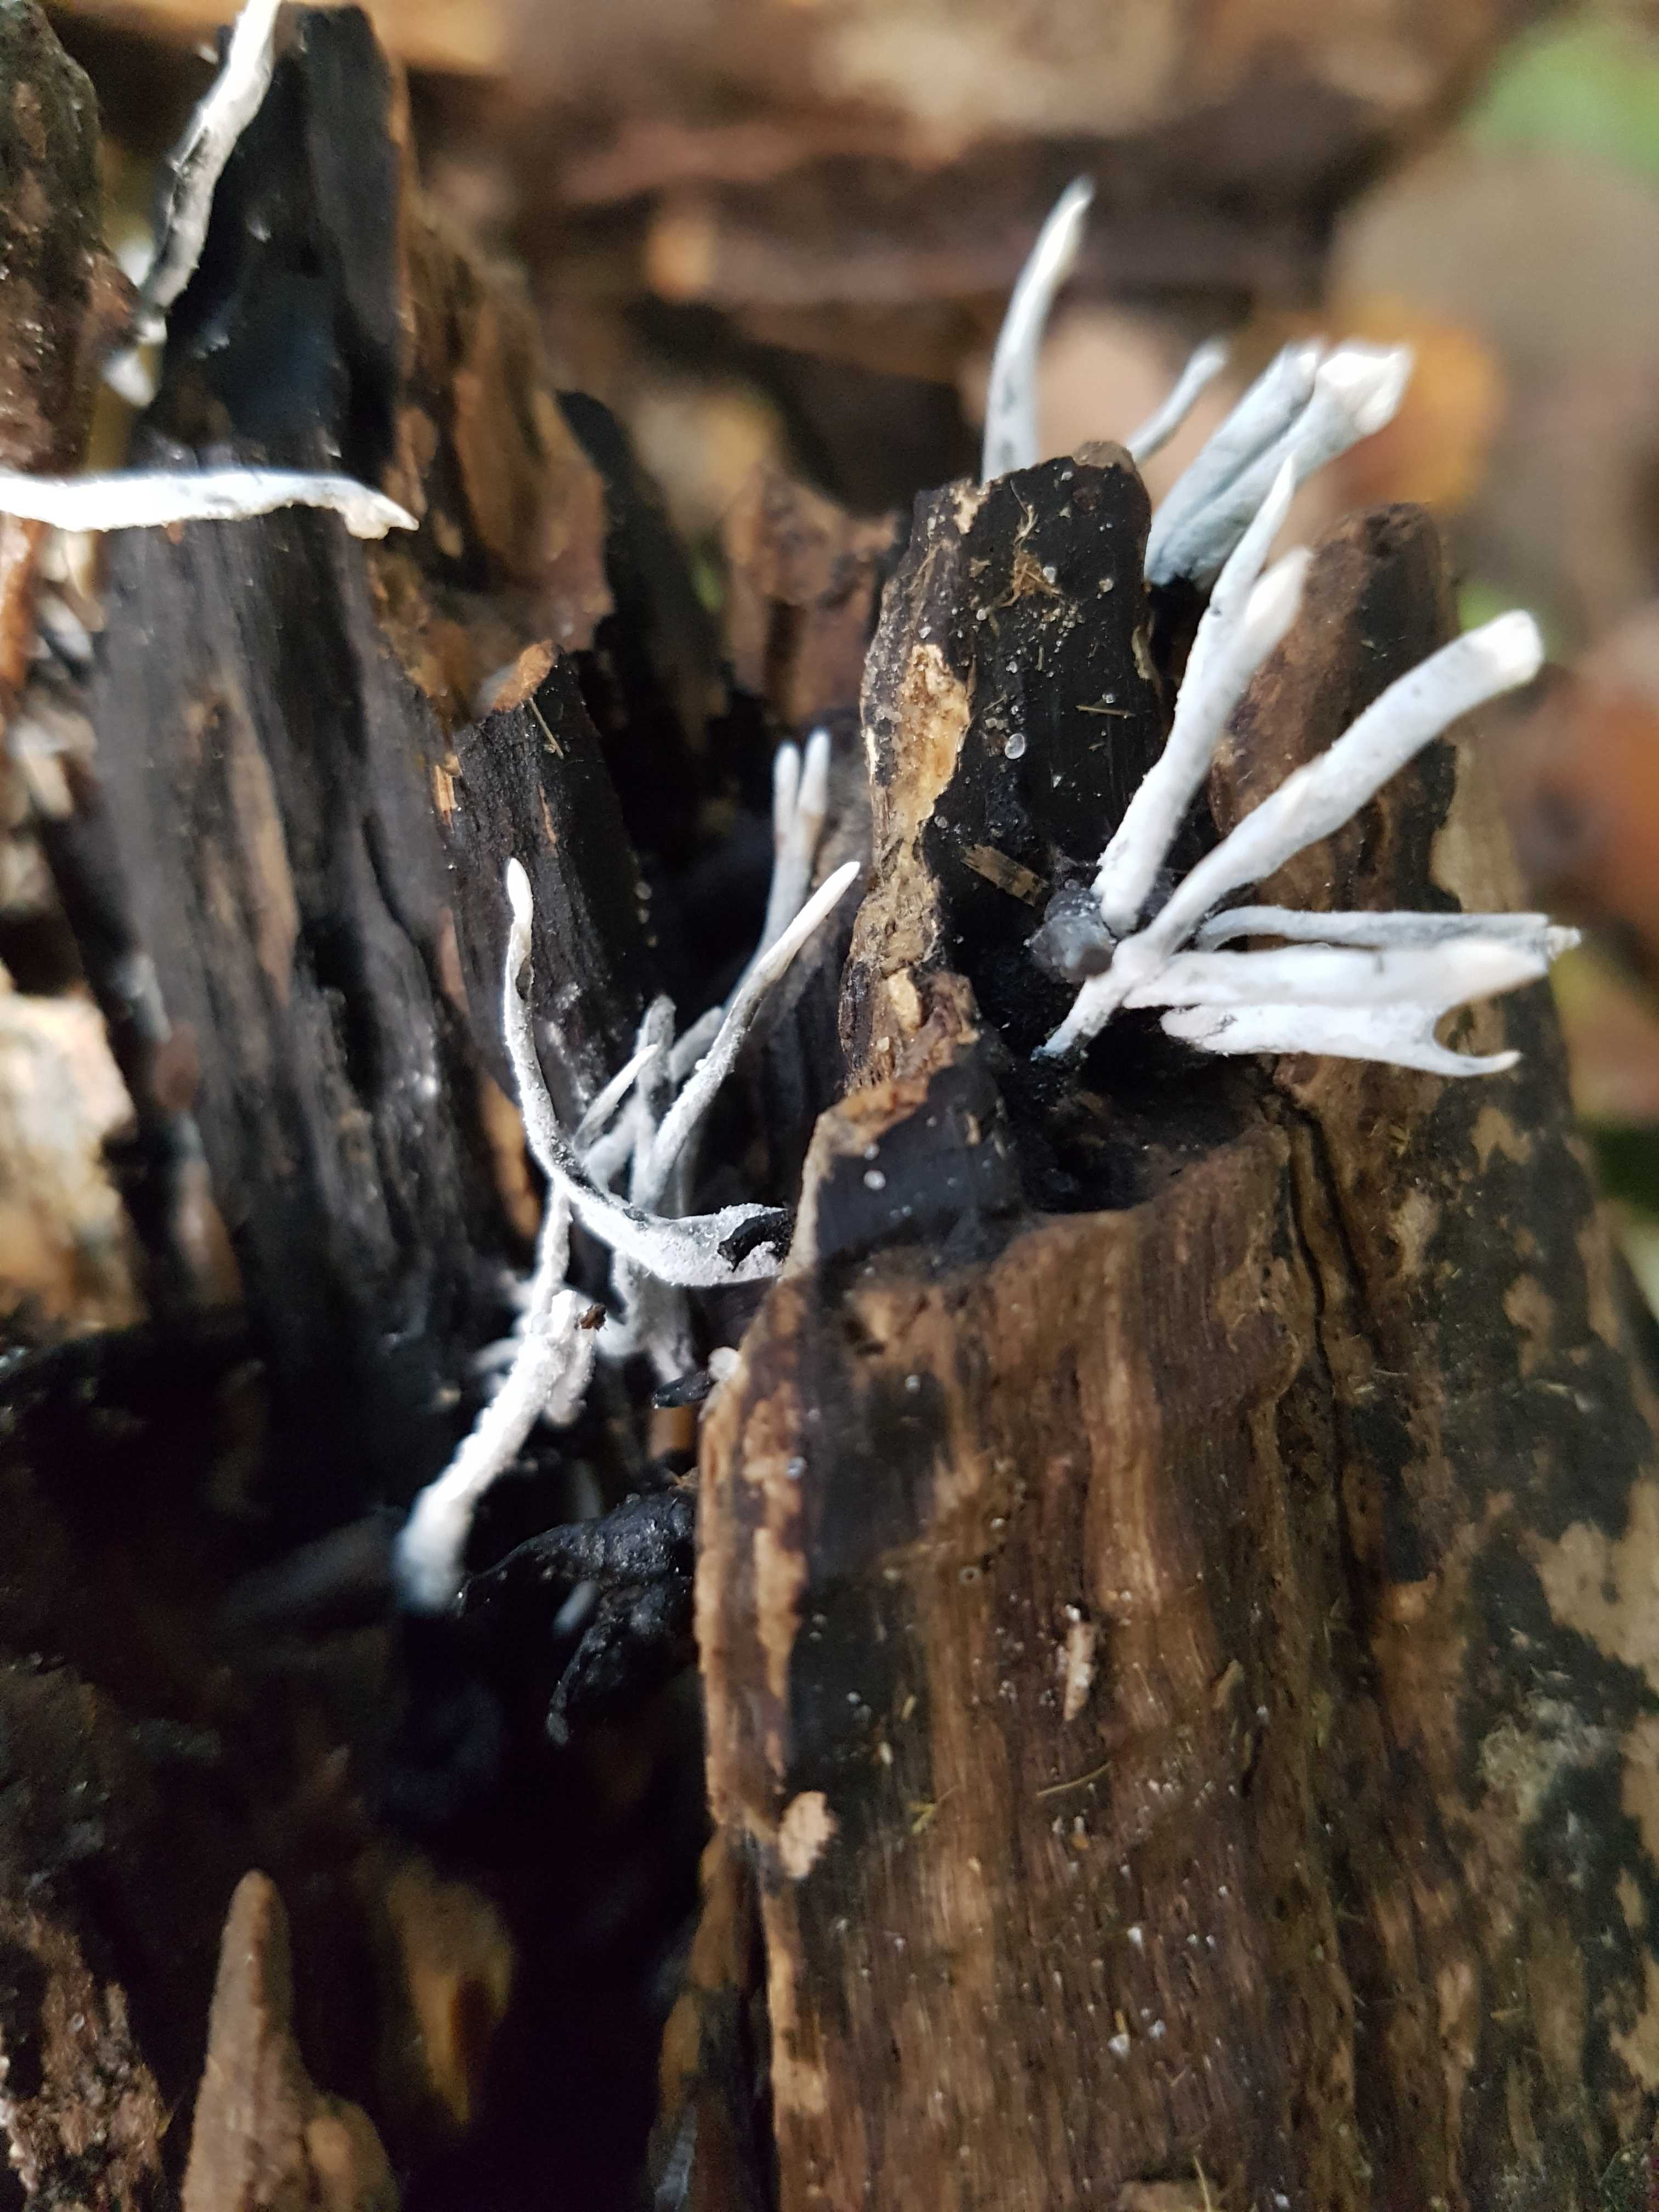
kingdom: Fungi
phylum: Ascomycota
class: Sordariomycetes
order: Xylariales
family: Xylariaceae
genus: Xylaria
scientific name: Xylaria hypoxylon
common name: grenet stødsvamp
